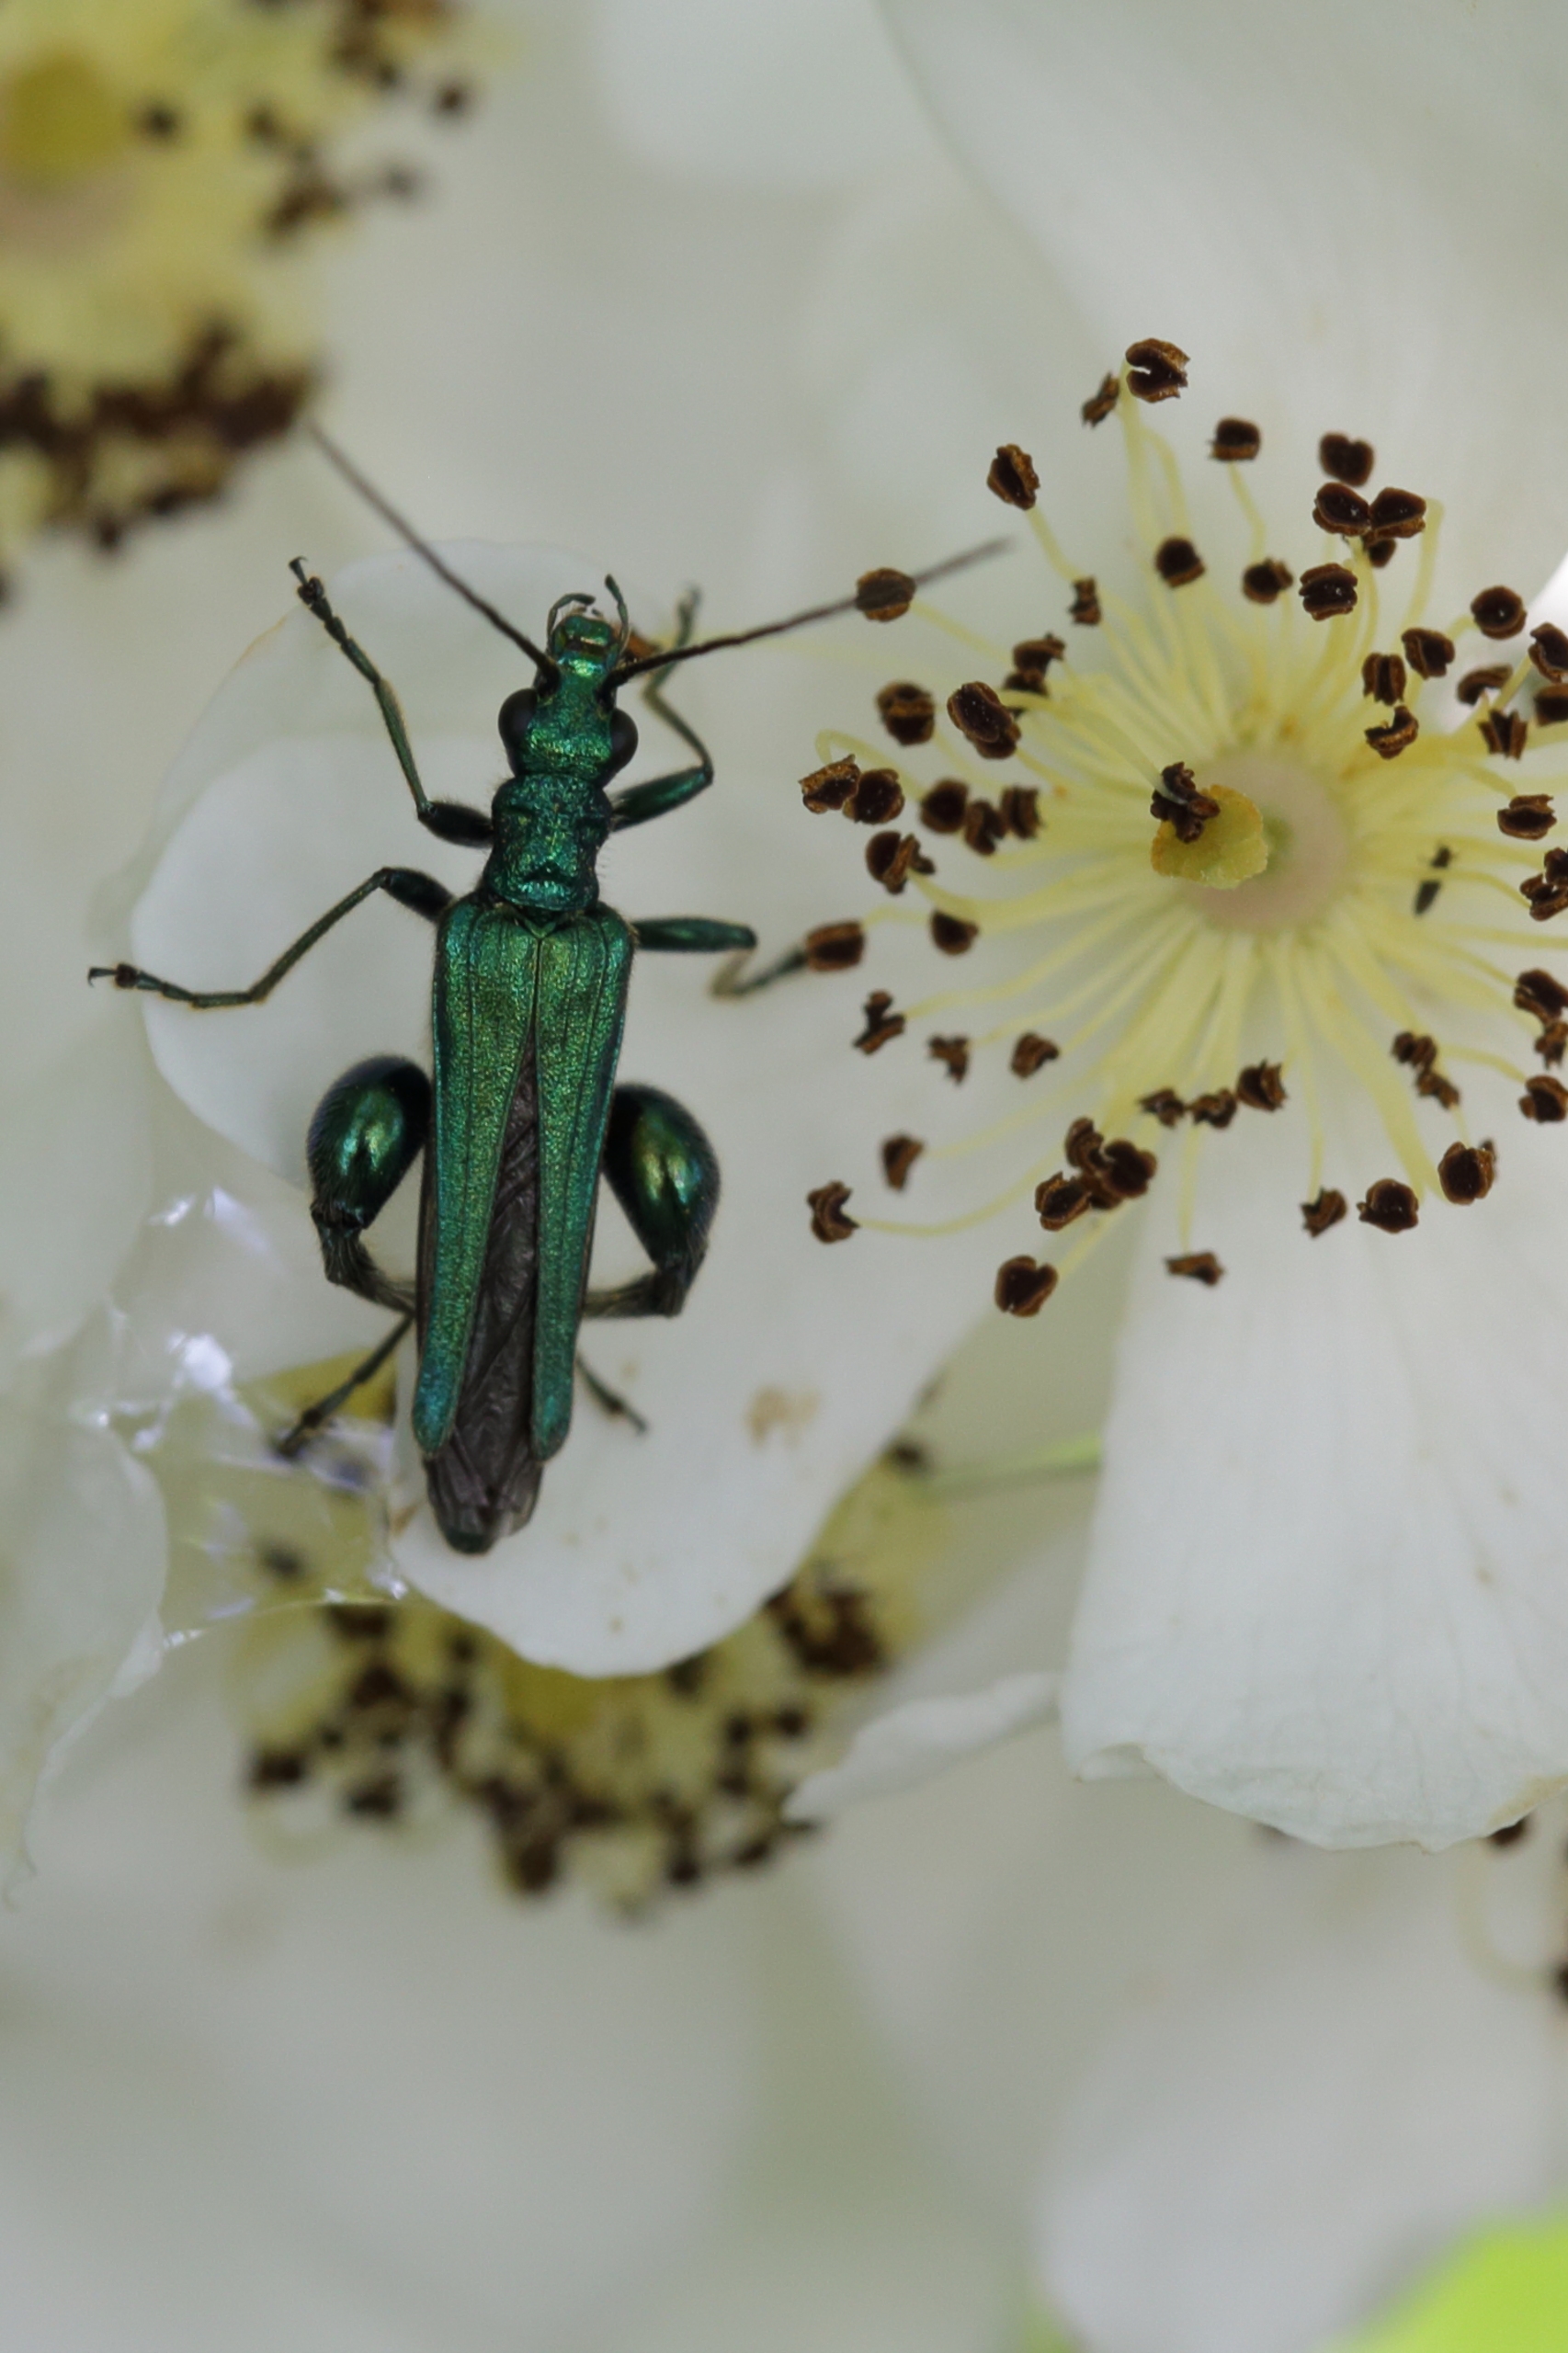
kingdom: Animalia
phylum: Arthropoda
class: Insecta
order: Coleoptera
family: Oedemeridae
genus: Oedemera
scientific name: Oedemera nobilis
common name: Tyklårssolbille
